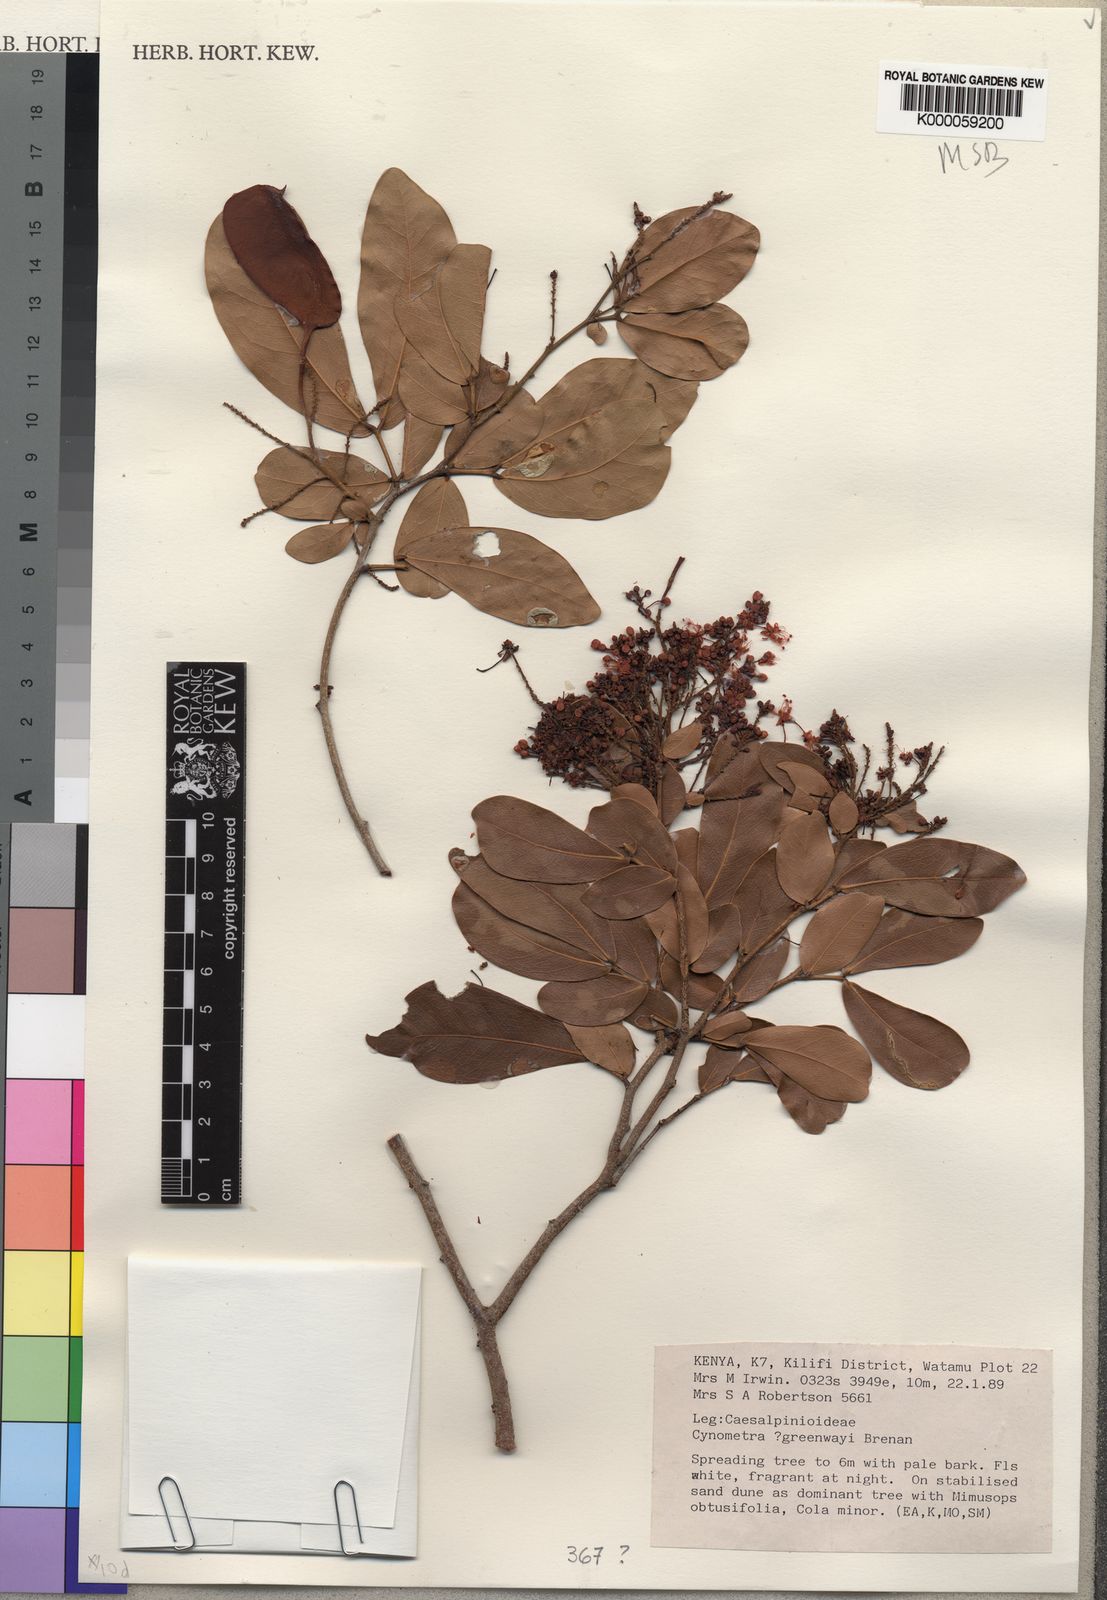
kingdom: Plantae
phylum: Tracheophyta
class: Magnoliopsida
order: Fabales
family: Fabaceae
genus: Cynometra
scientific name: Cynometra greenwayi
